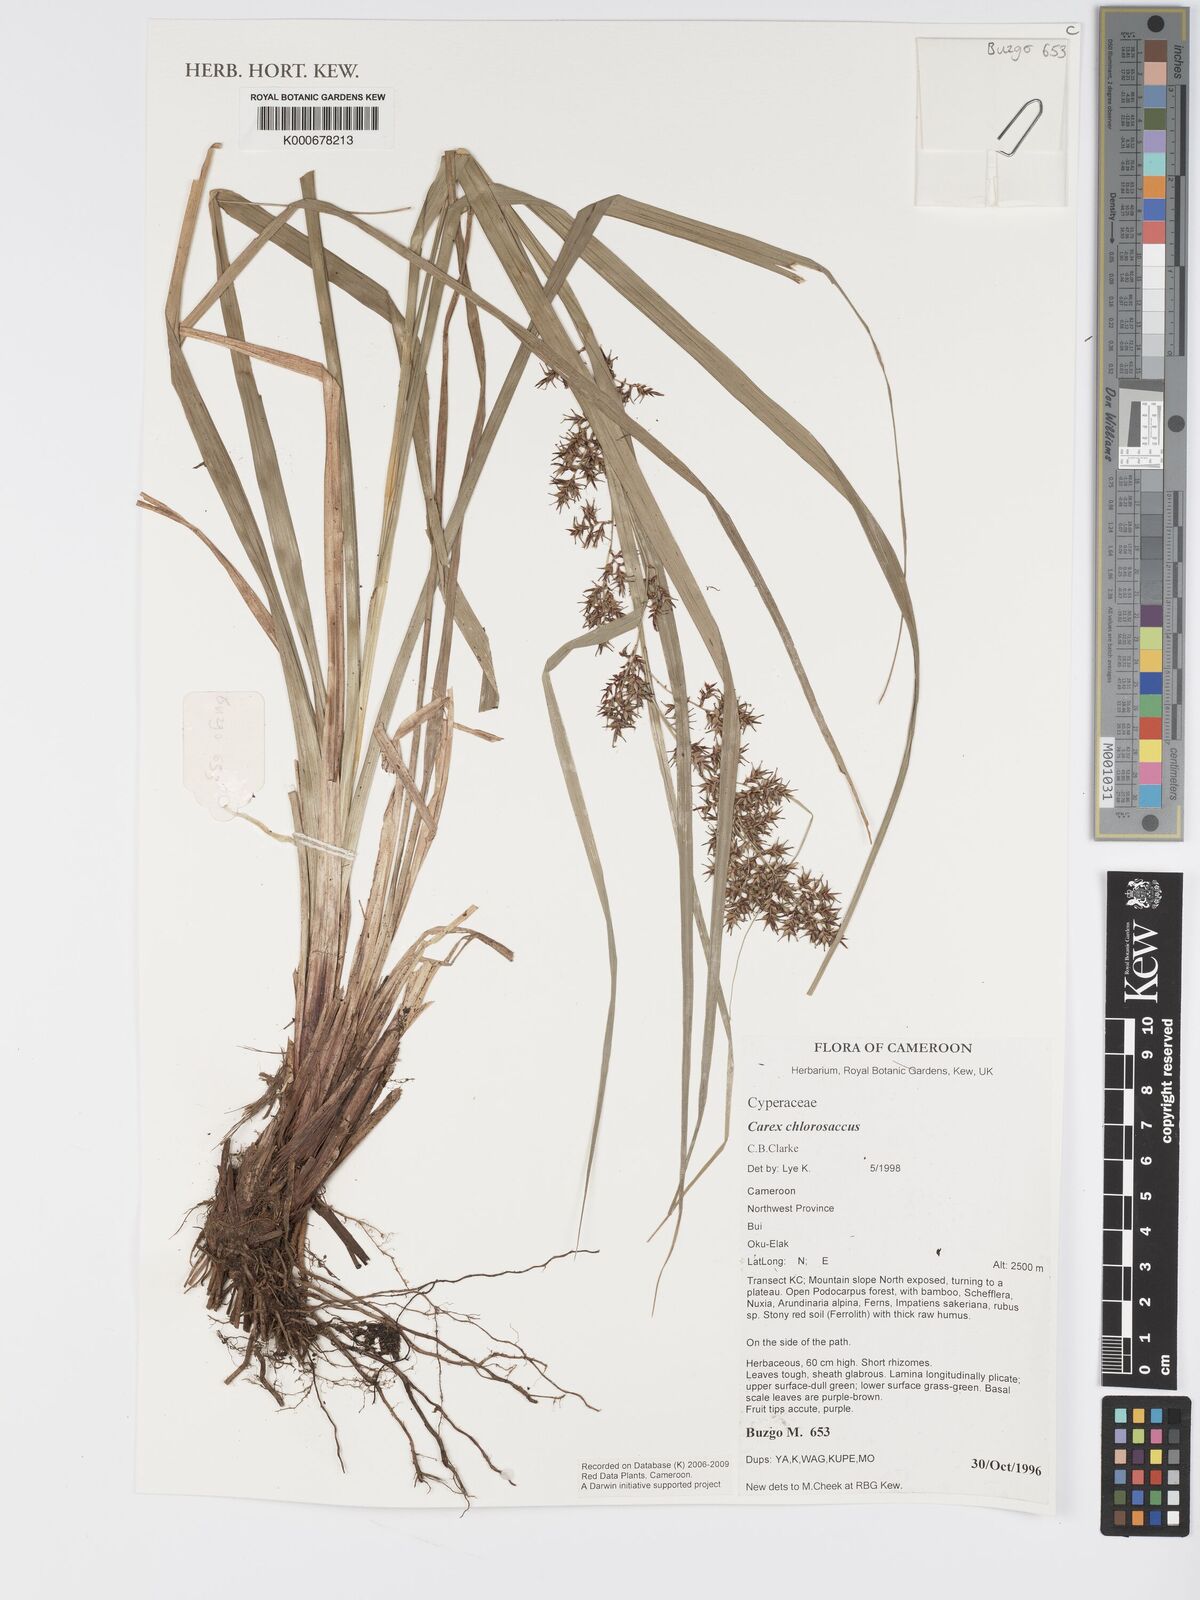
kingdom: Plantae
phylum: Tracheophyta
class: Liliopsida
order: Poales
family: Cyperaceae
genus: Carex
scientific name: Carex chlorosaccus
